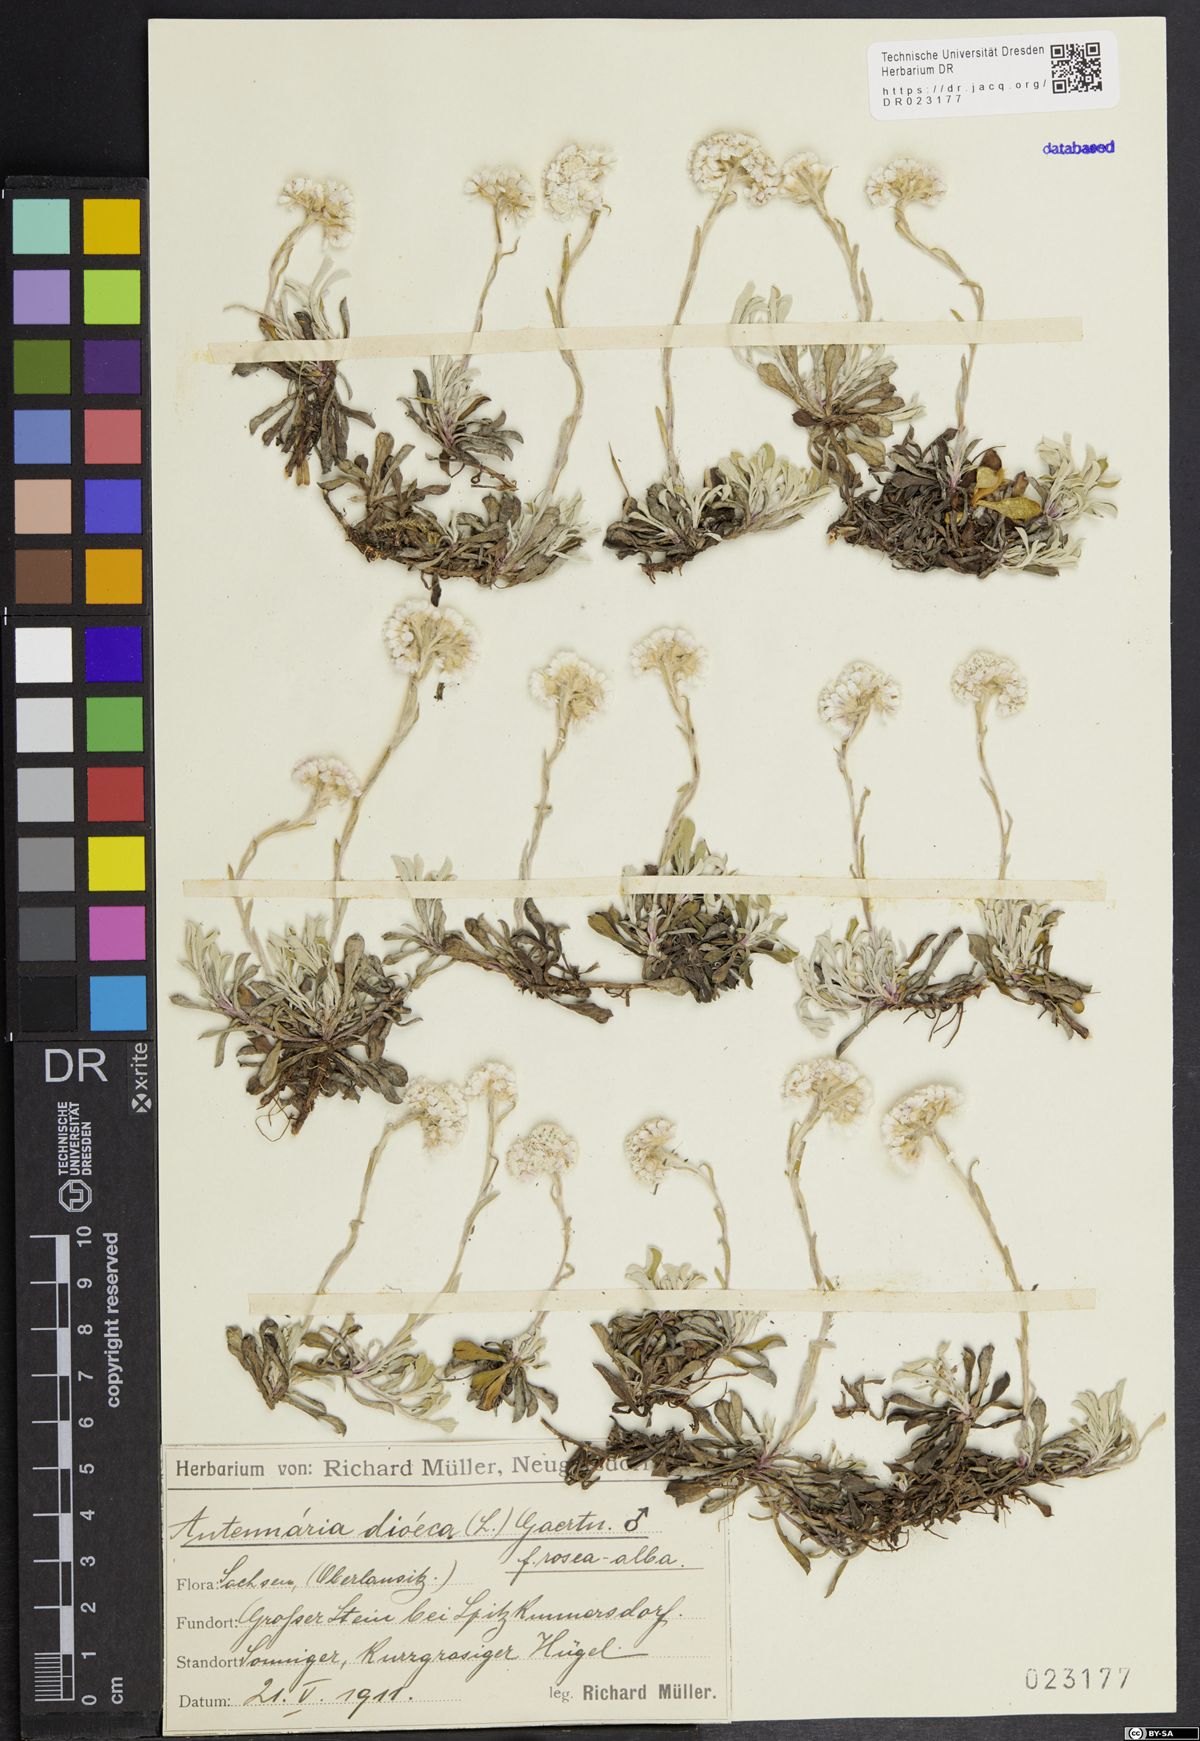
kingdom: Plantae
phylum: Tracheophyta
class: Magnoliopsida
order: Asterales
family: Asteraceae
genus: Antennaria
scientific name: Antennaria dioica
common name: Mountain everlasting
